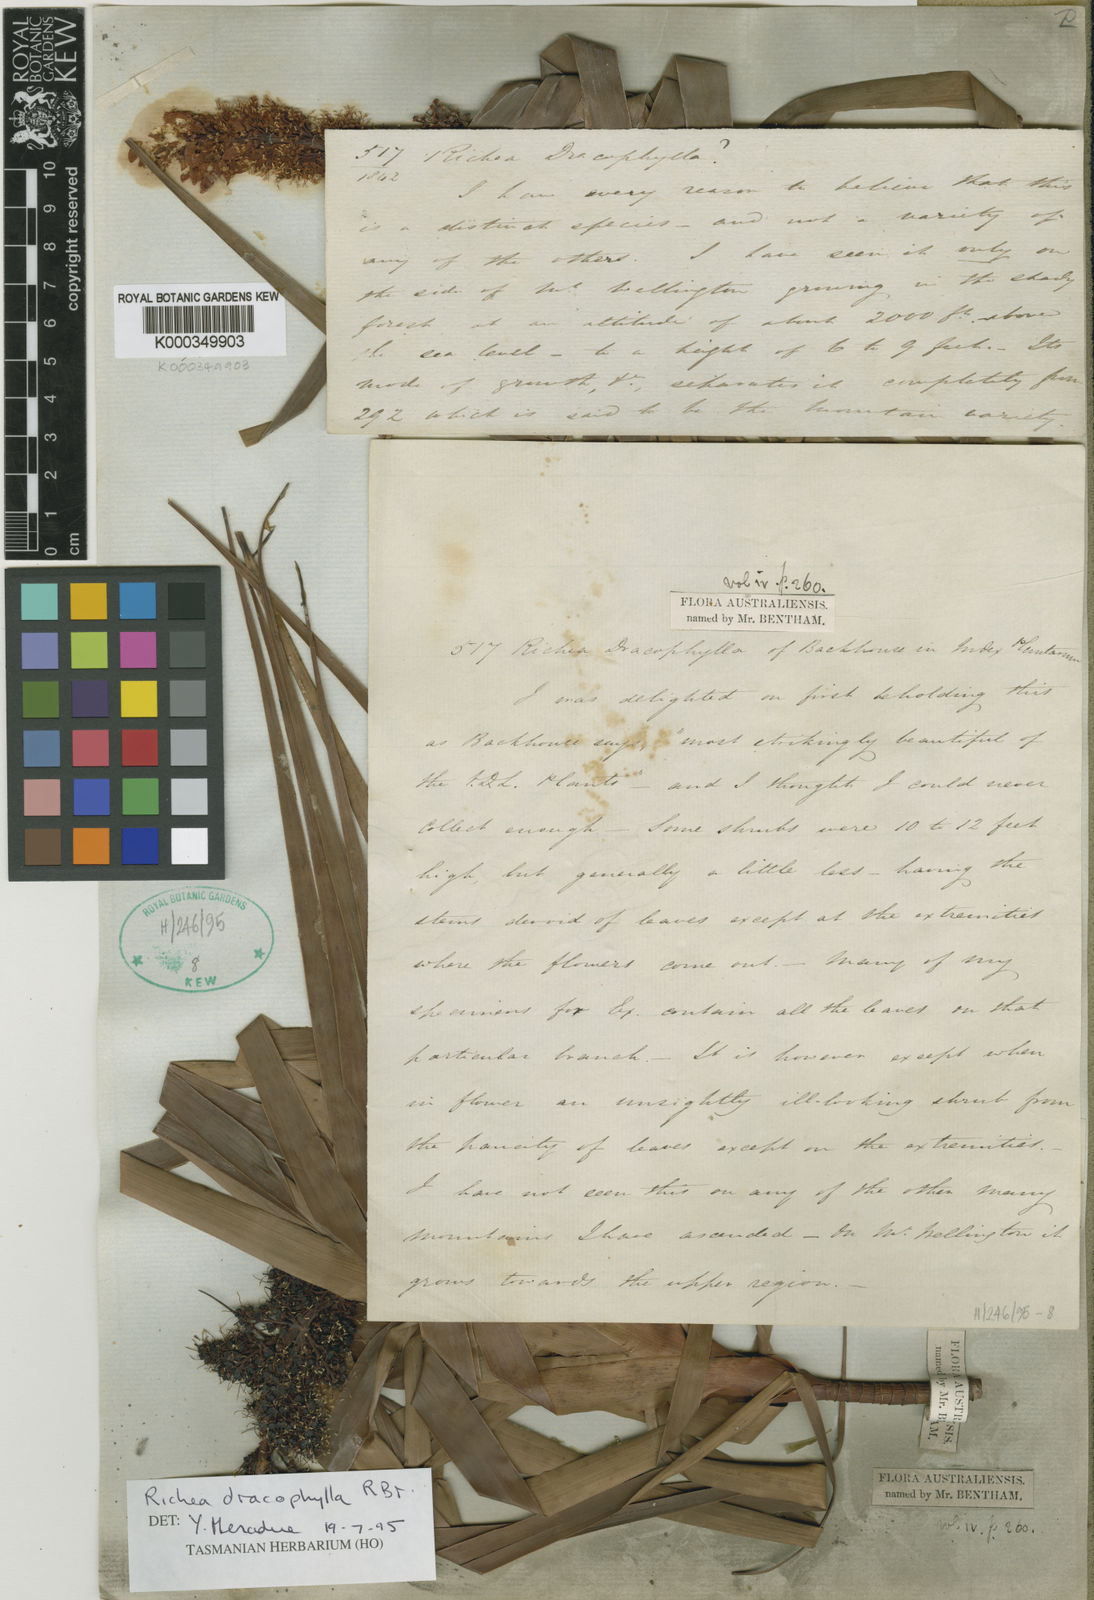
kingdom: Plantae
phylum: Tracheophyta
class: Magnoliopsida
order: Ericales
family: Ericaceae
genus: Dracophyllum
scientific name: Dracophyllum desgrazii
